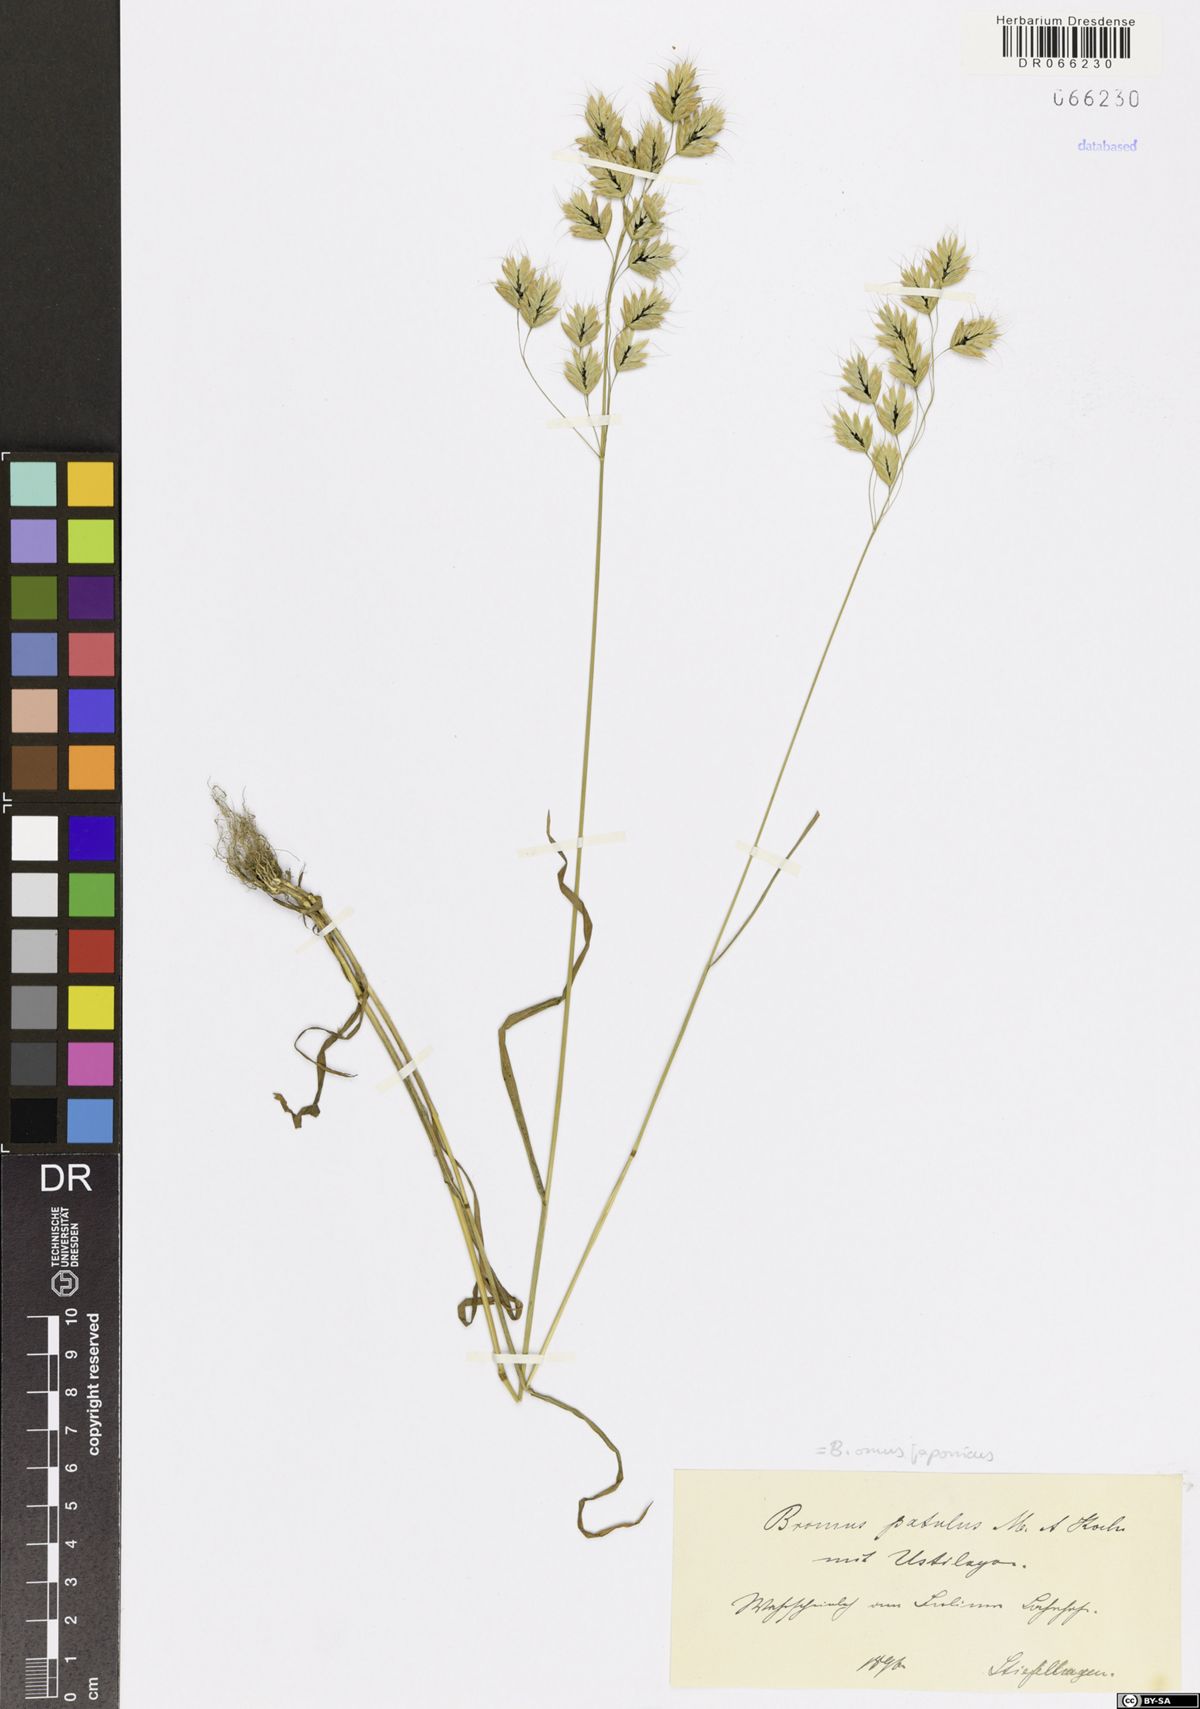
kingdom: Plantae
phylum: Tracheophyta
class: Liliopsida
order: Poales
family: Poaceae
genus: Bromus
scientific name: Bromus japonicus
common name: Japanese brome
